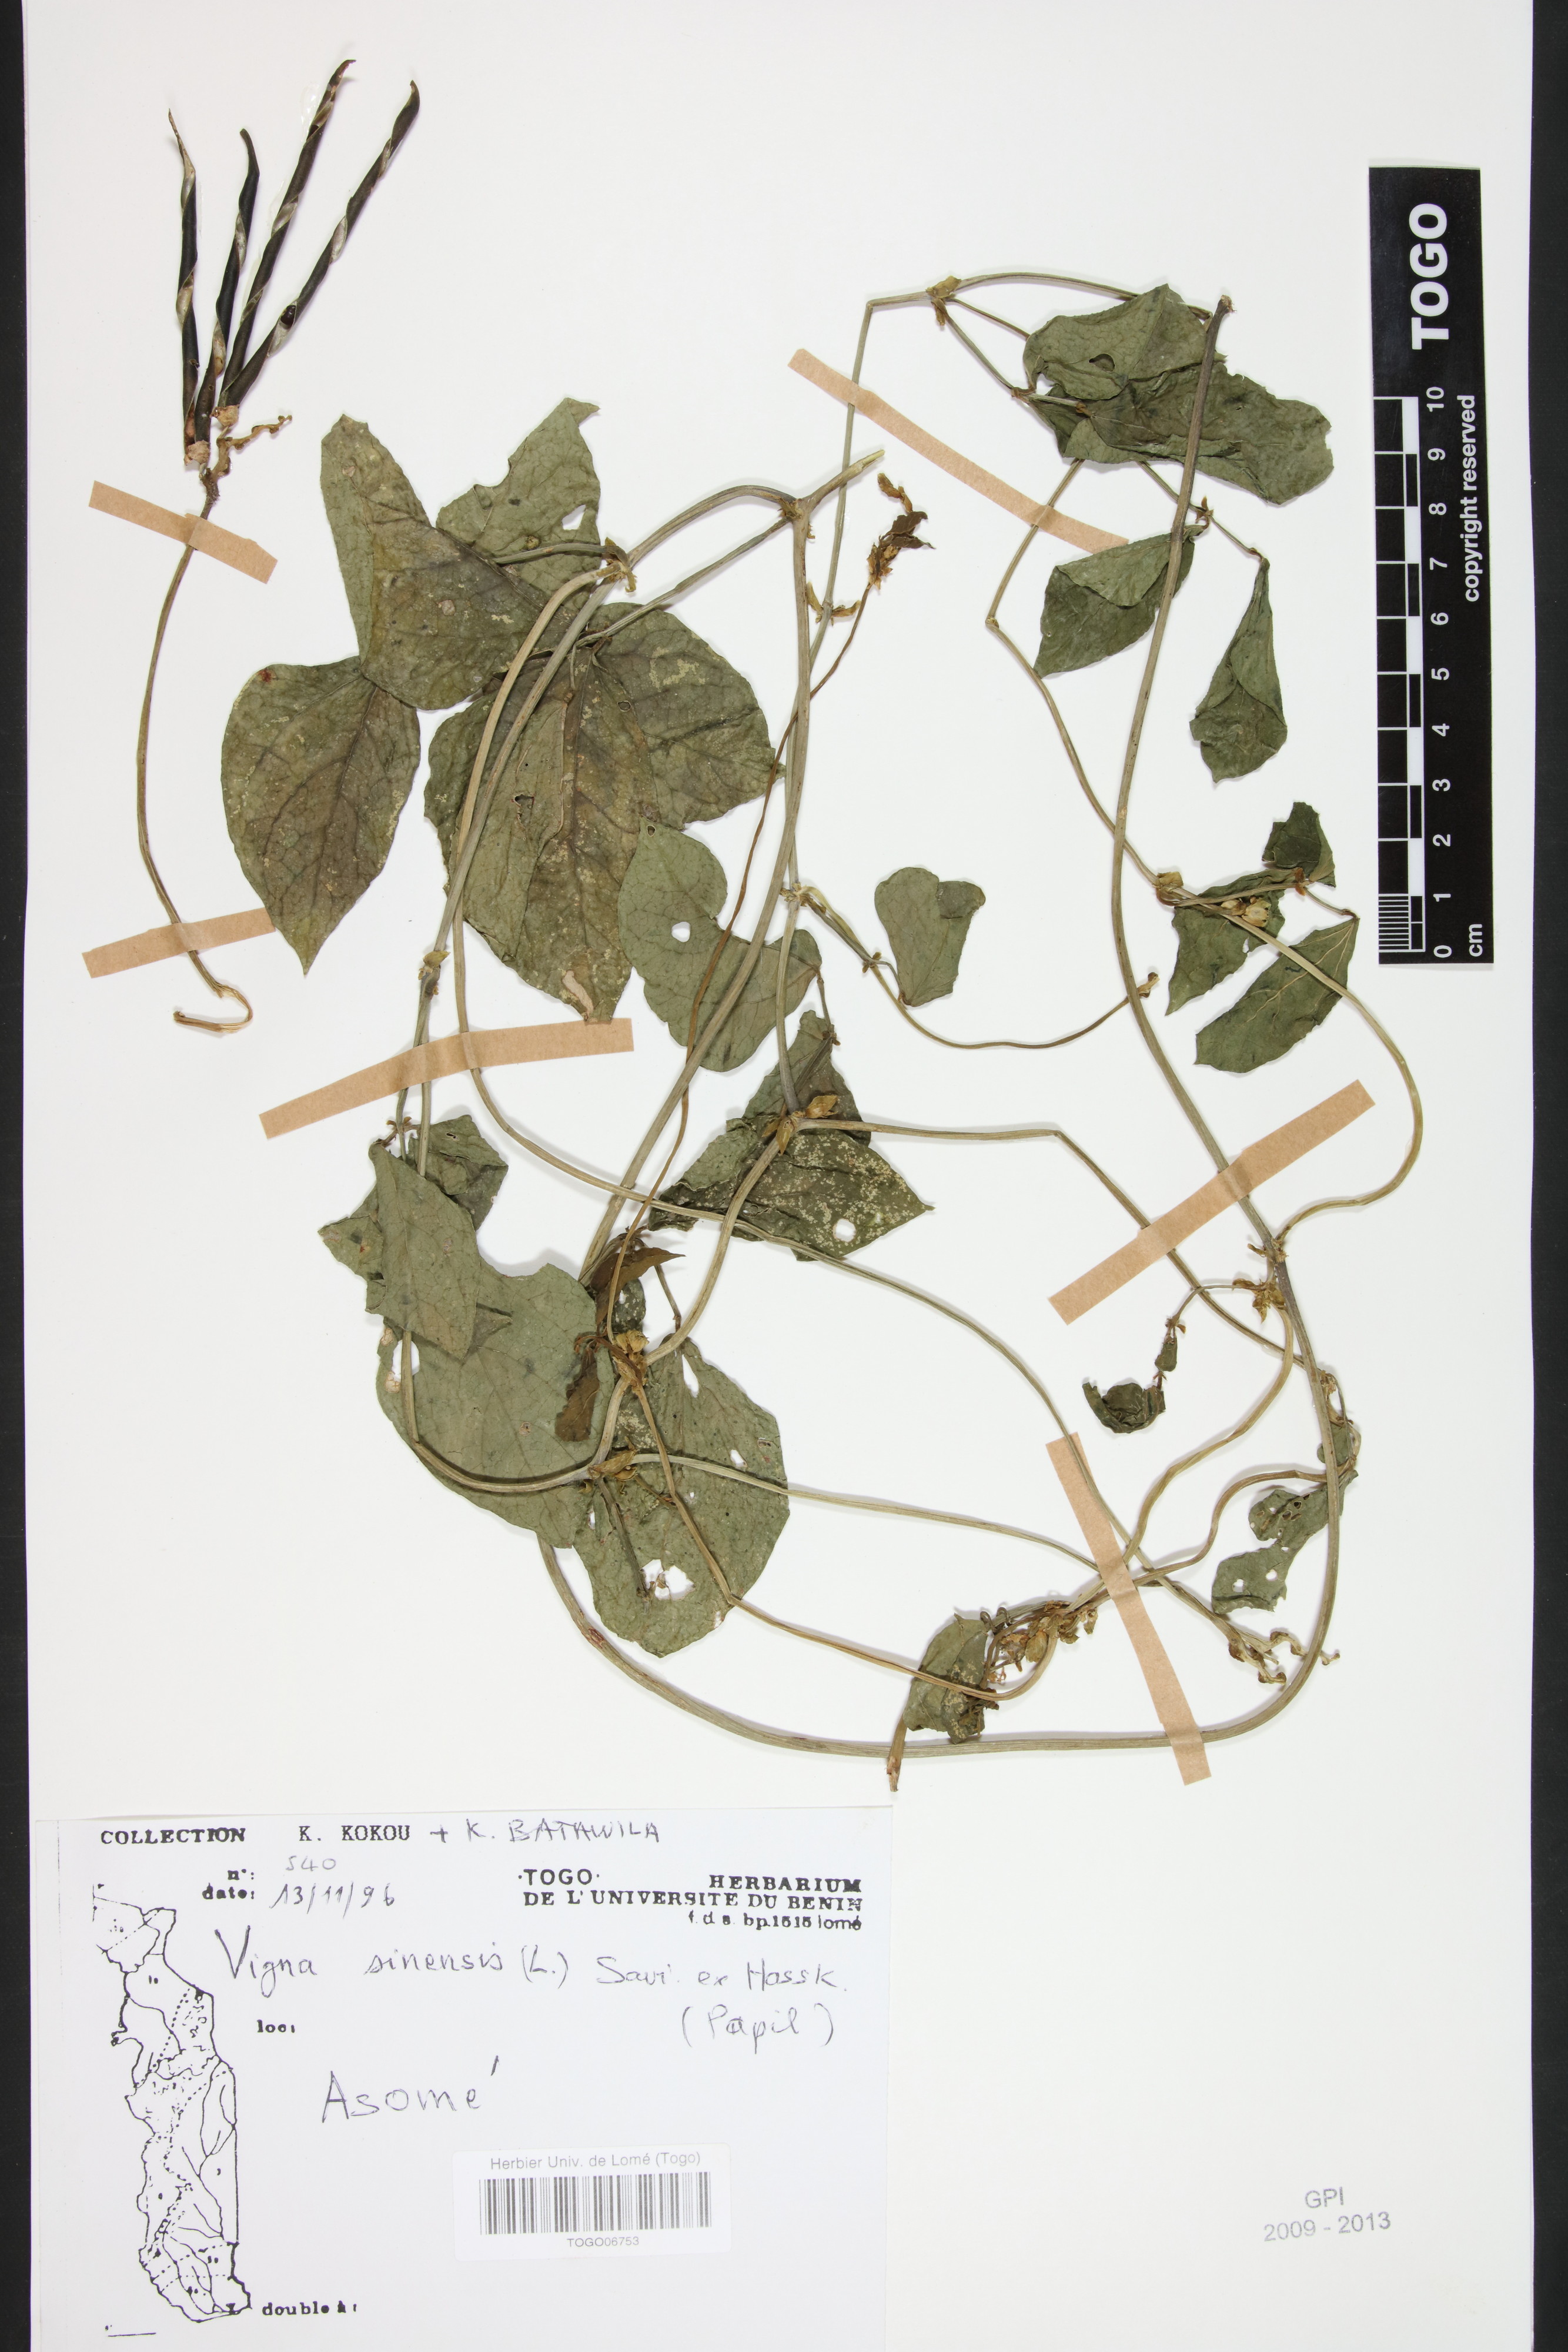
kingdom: Plantae
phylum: Tracheophyta
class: Magnoliopsida
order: Fabales
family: Fabaceae
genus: Vigna
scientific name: Vigna unguiculata
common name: Cowpea
